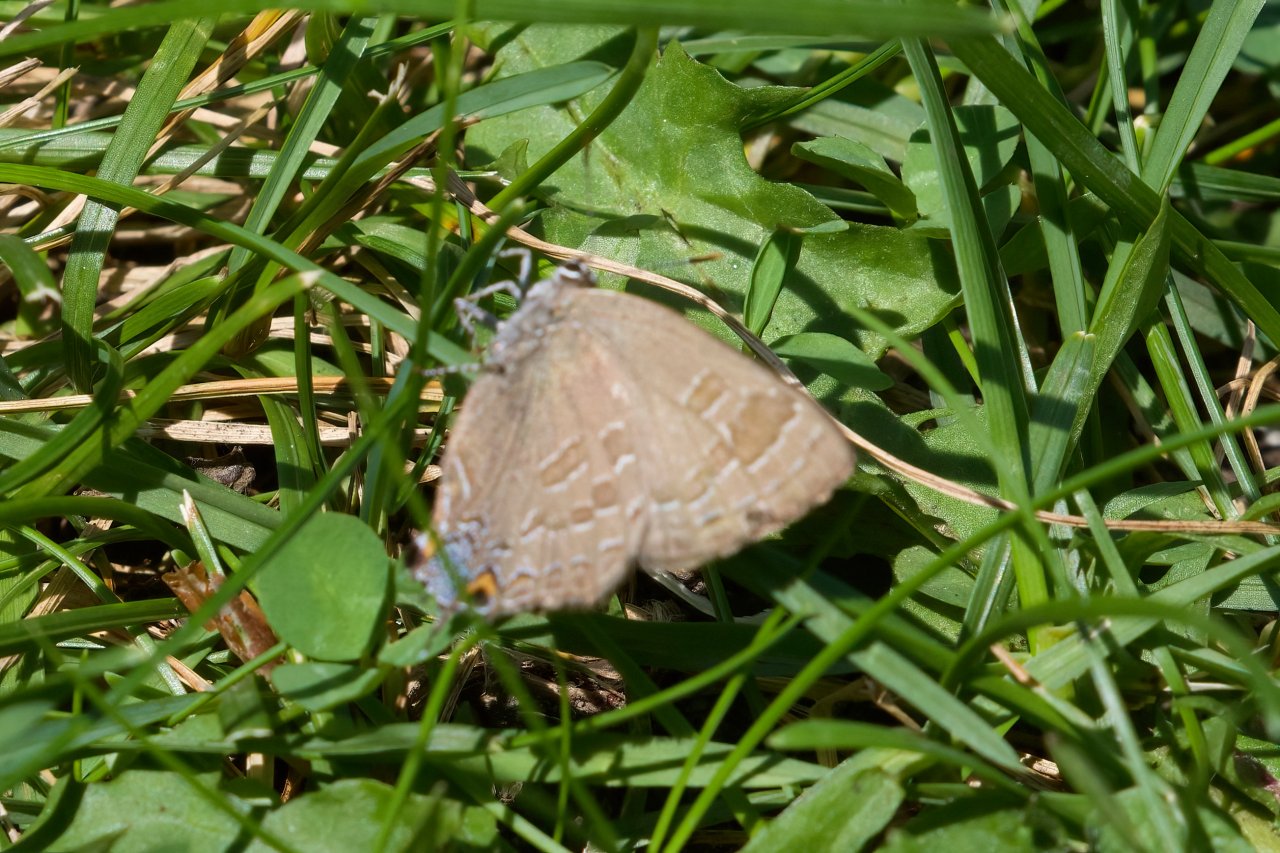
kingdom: Animalia
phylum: Arthropoda
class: Insecta
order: Lepidoptera
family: Lycaenidae
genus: Strymon
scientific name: Strymon caryaevorus
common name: Hickory Hairstreak
